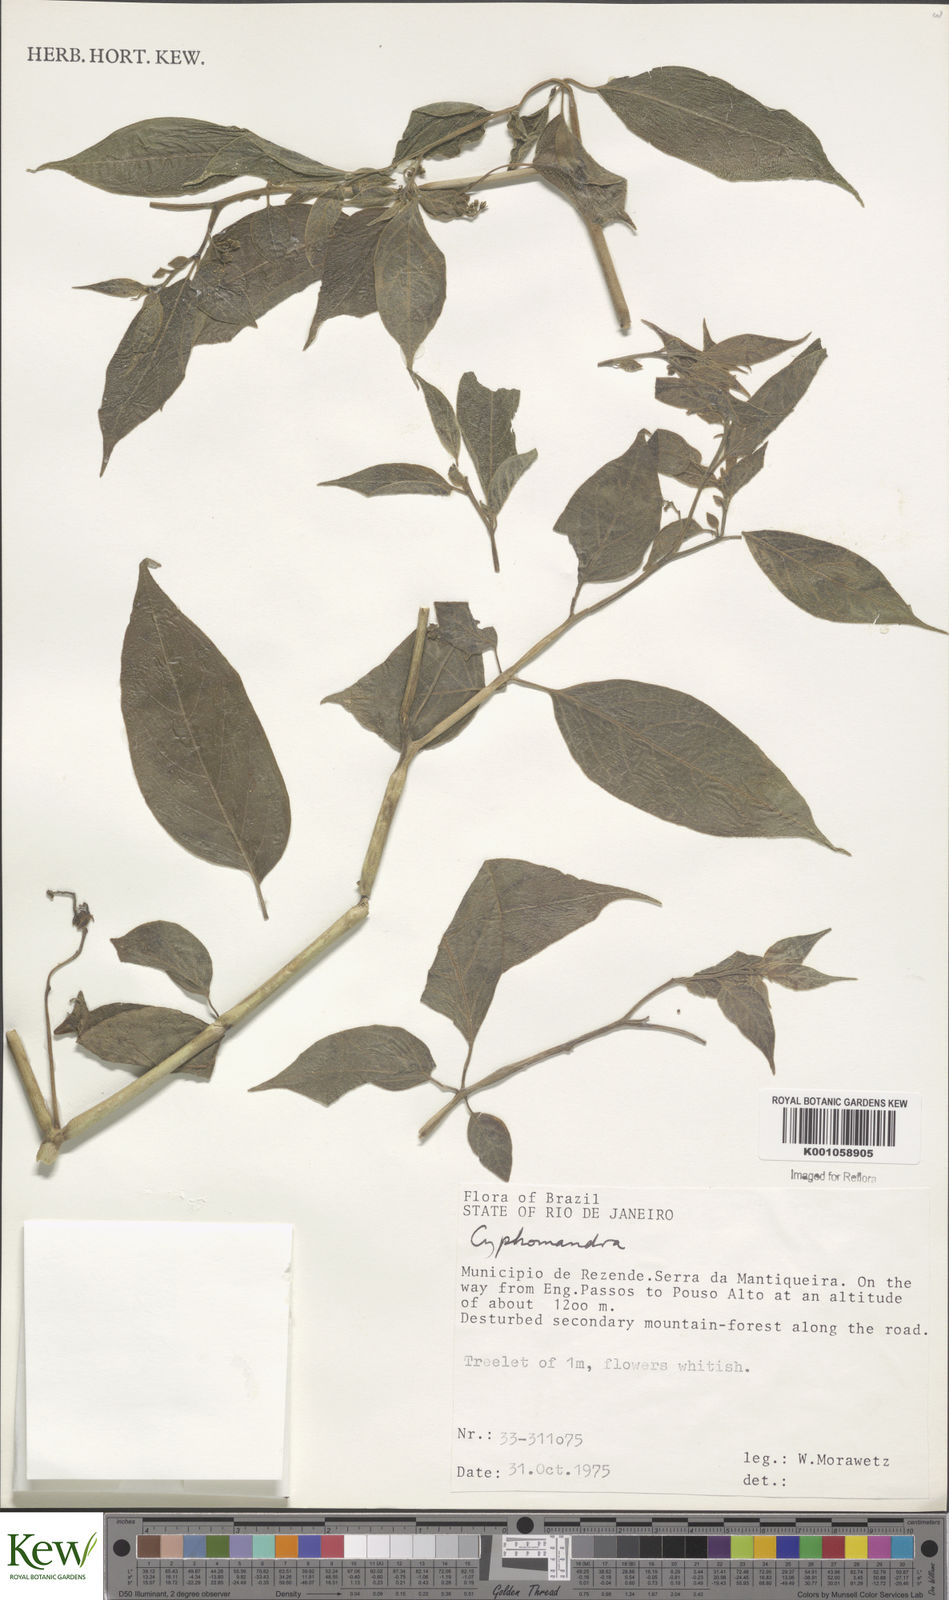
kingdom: Plantae
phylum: Tracheophyta
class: Magnoliopsida
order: Solanales
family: Solanaceae
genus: Solanum
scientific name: Solanum latiflorum
